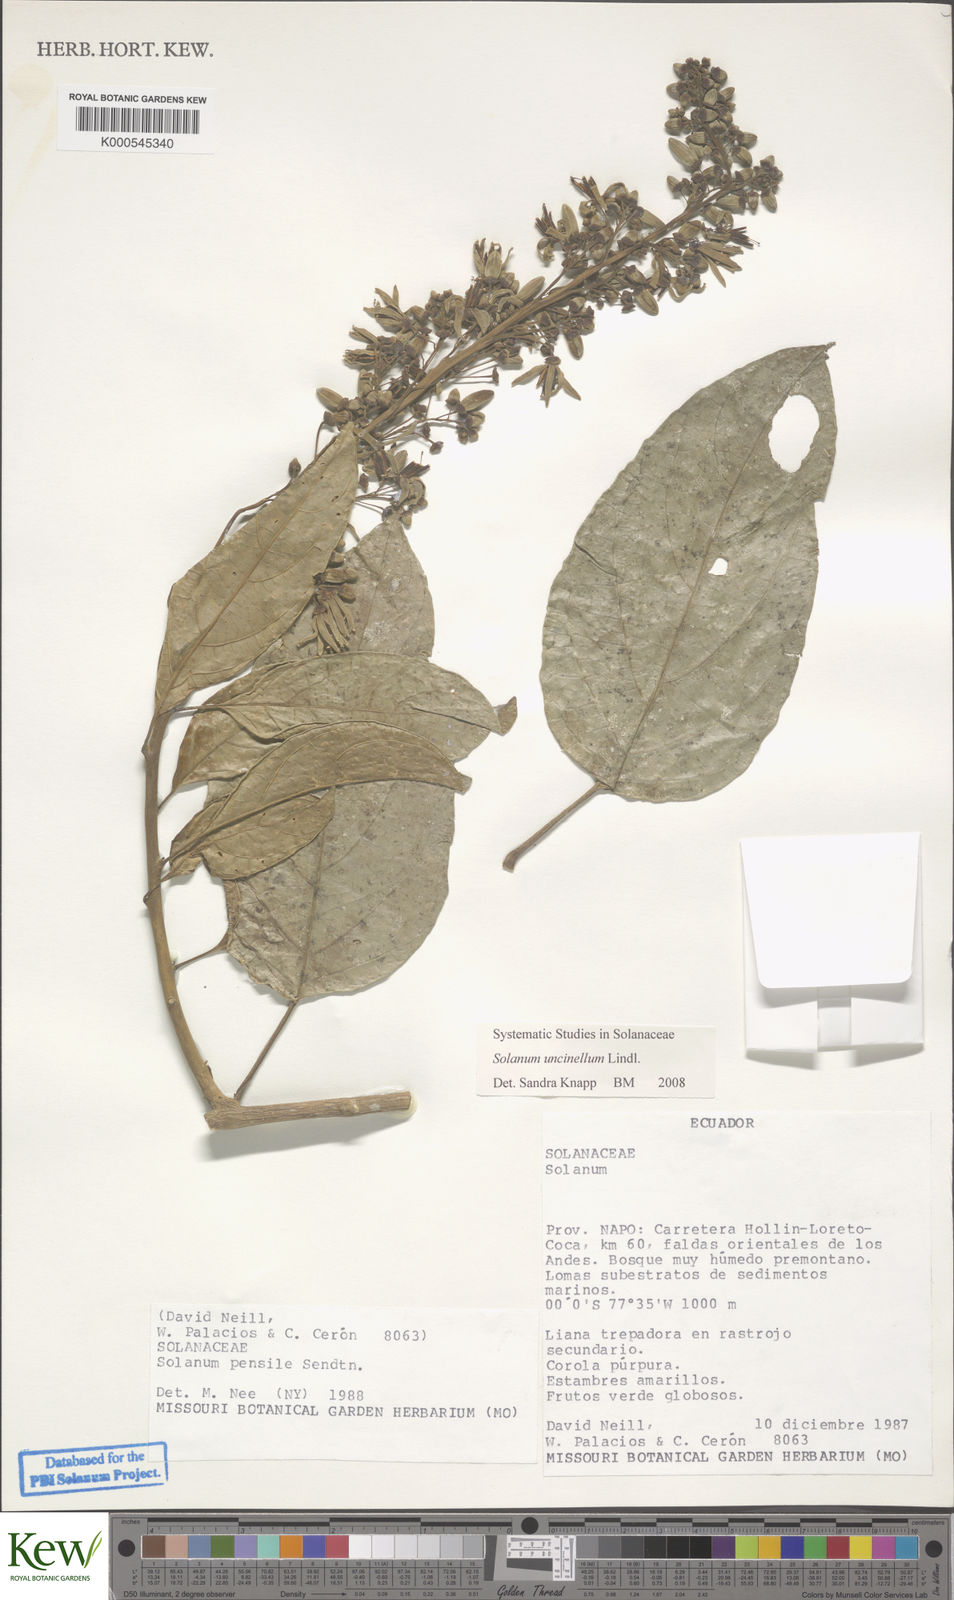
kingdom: Plantae
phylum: Tracheophyta
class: Magnoliopsida
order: Solanales
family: Solanaceae
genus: Solanum
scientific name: Solanum uncinellum
